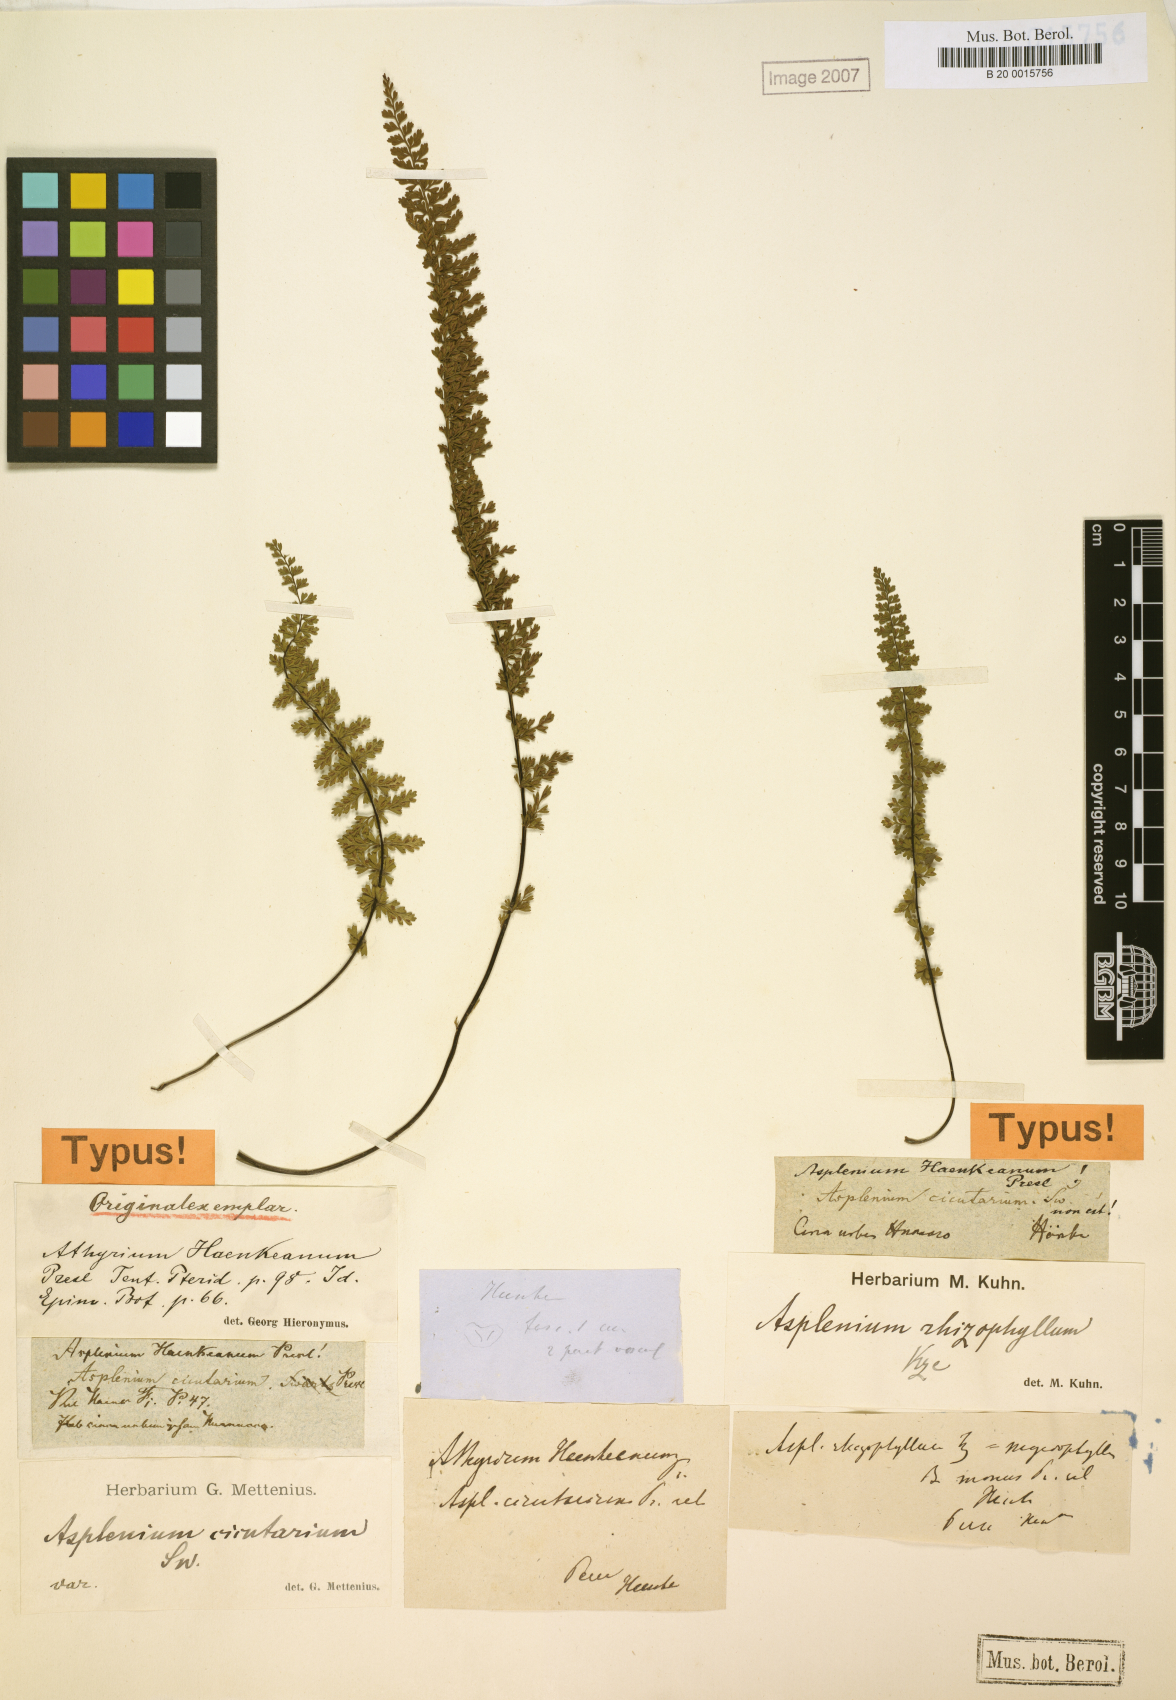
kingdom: Plantae
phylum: Tracheophyta
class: Polypodiopsida
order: Polypodiales
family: Aspleniaceae
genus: Asplenium
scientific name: Asplenium haenkeanum
